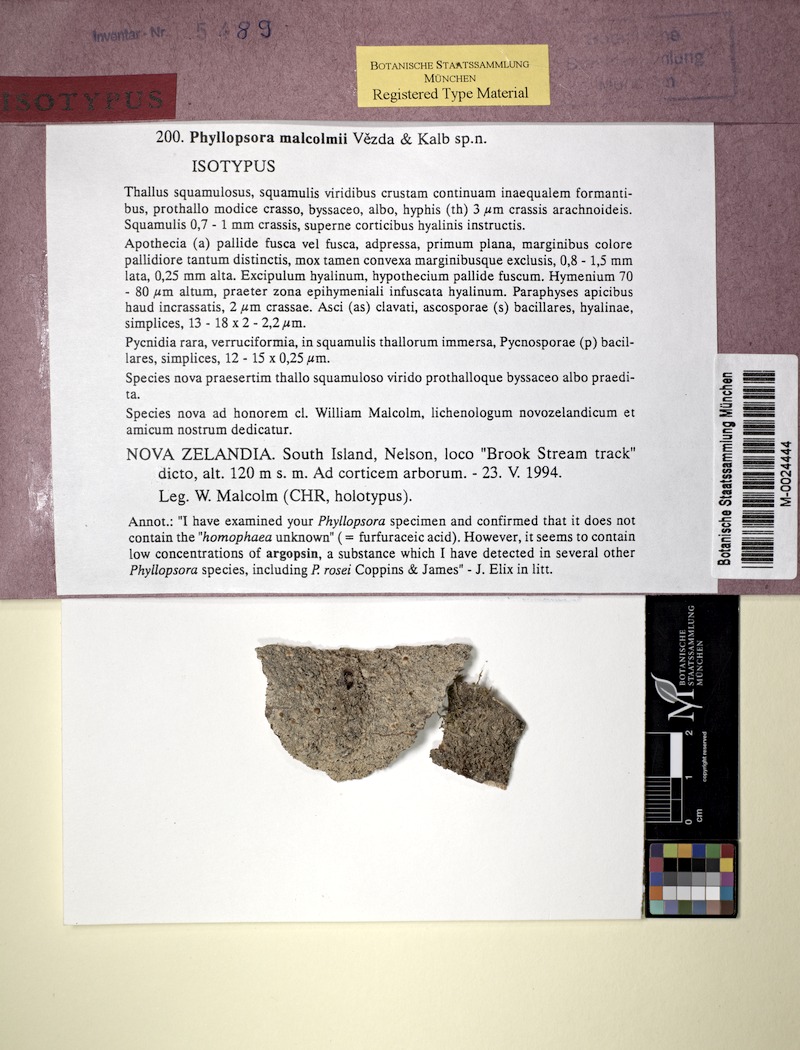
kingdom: Fungi
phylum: Ascomycota
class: Lecanoromycetes
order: Lecanorales
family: Lecanoraceae
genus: Myrionora
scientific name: Myrionora malcolmii
